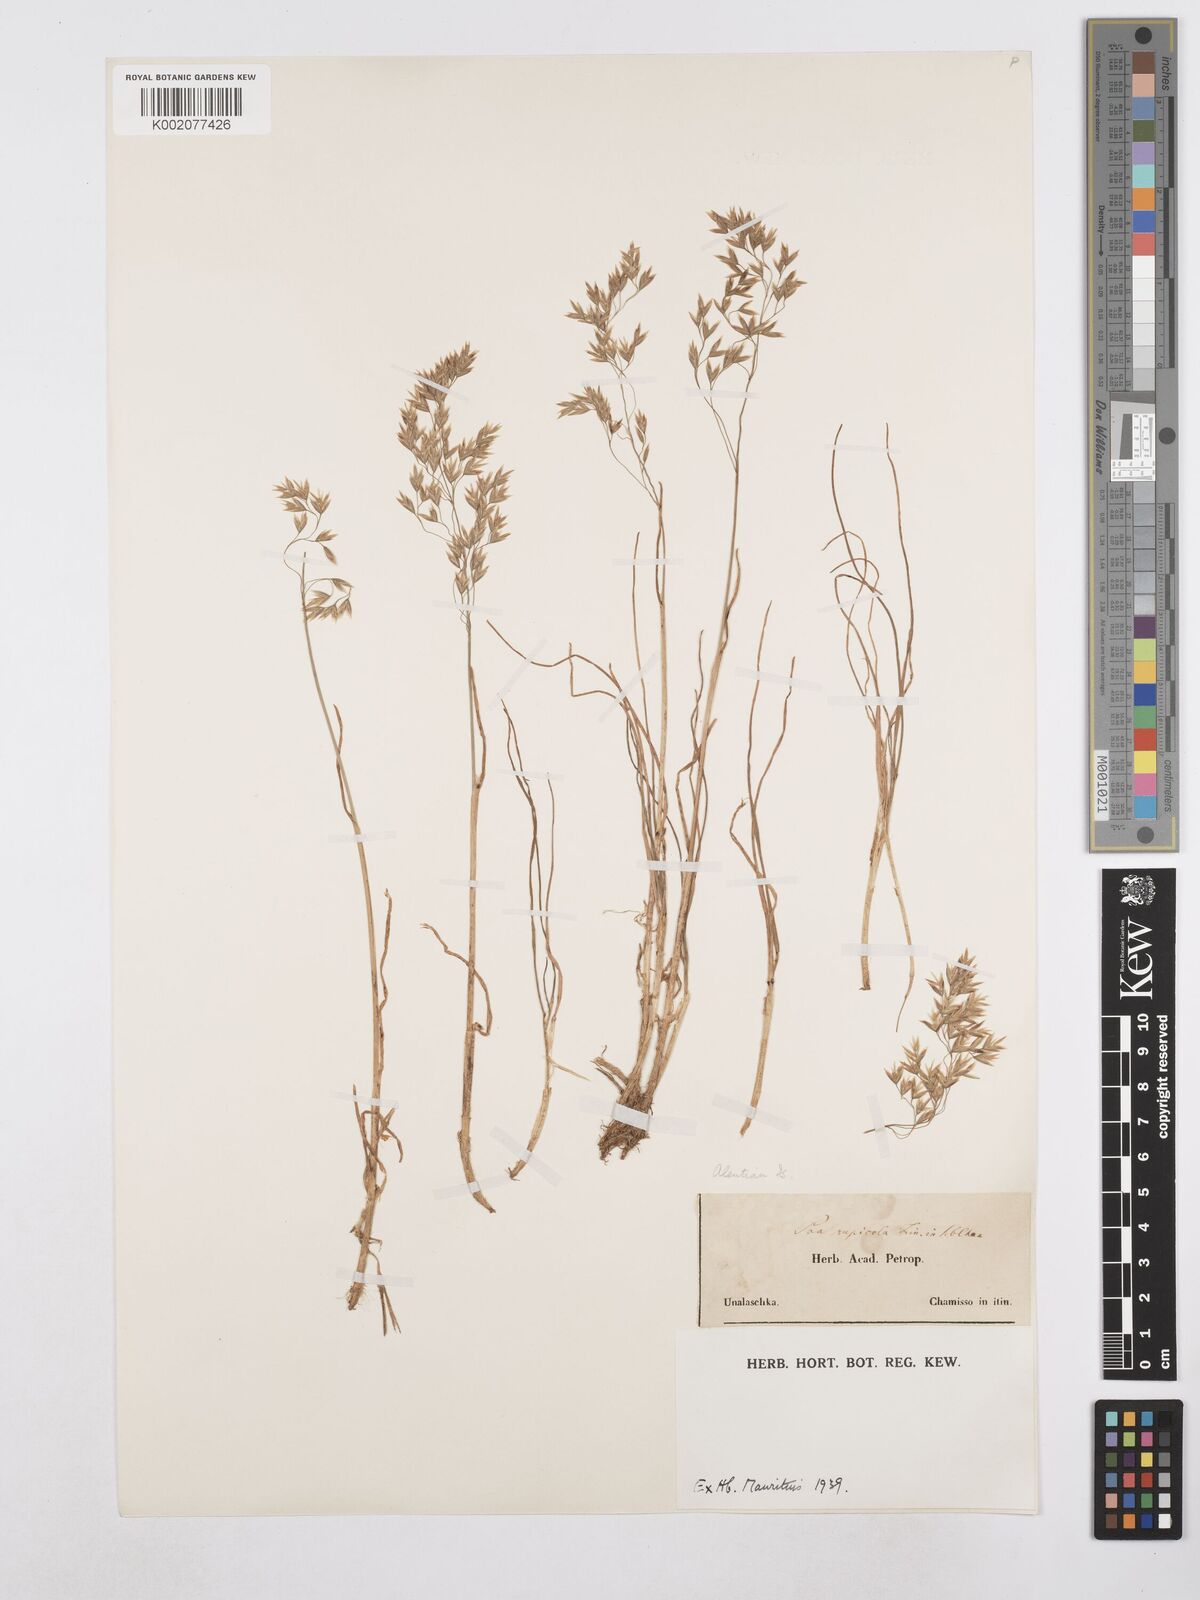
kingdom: Plantae
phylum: Tracheophyta
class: Liliopsida
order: Poales
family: Poaceae
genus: Poa
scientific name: Poa glauca
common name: Glaucous bluegrass
